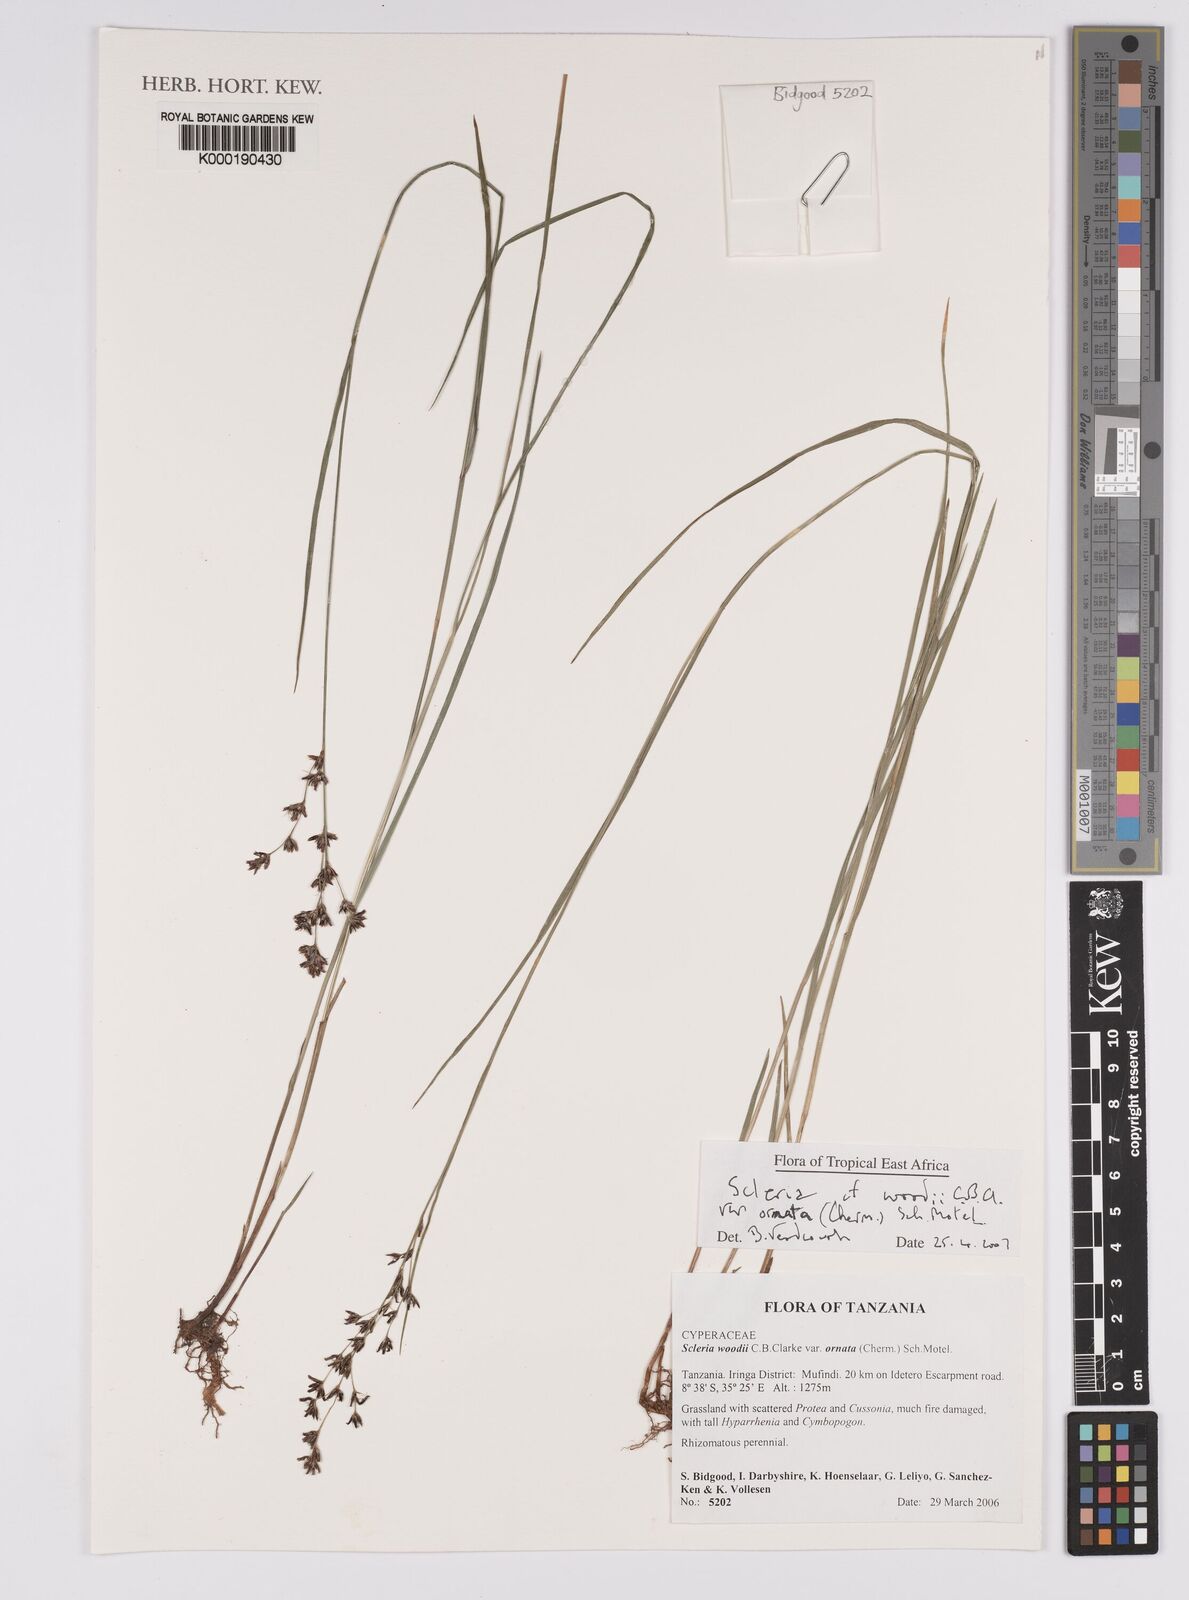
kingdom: Plantae
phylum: Tracheophyta
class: Liliopsida
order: Poales
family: Cyperaceae
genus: Scleria
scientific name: Scleria woodii
